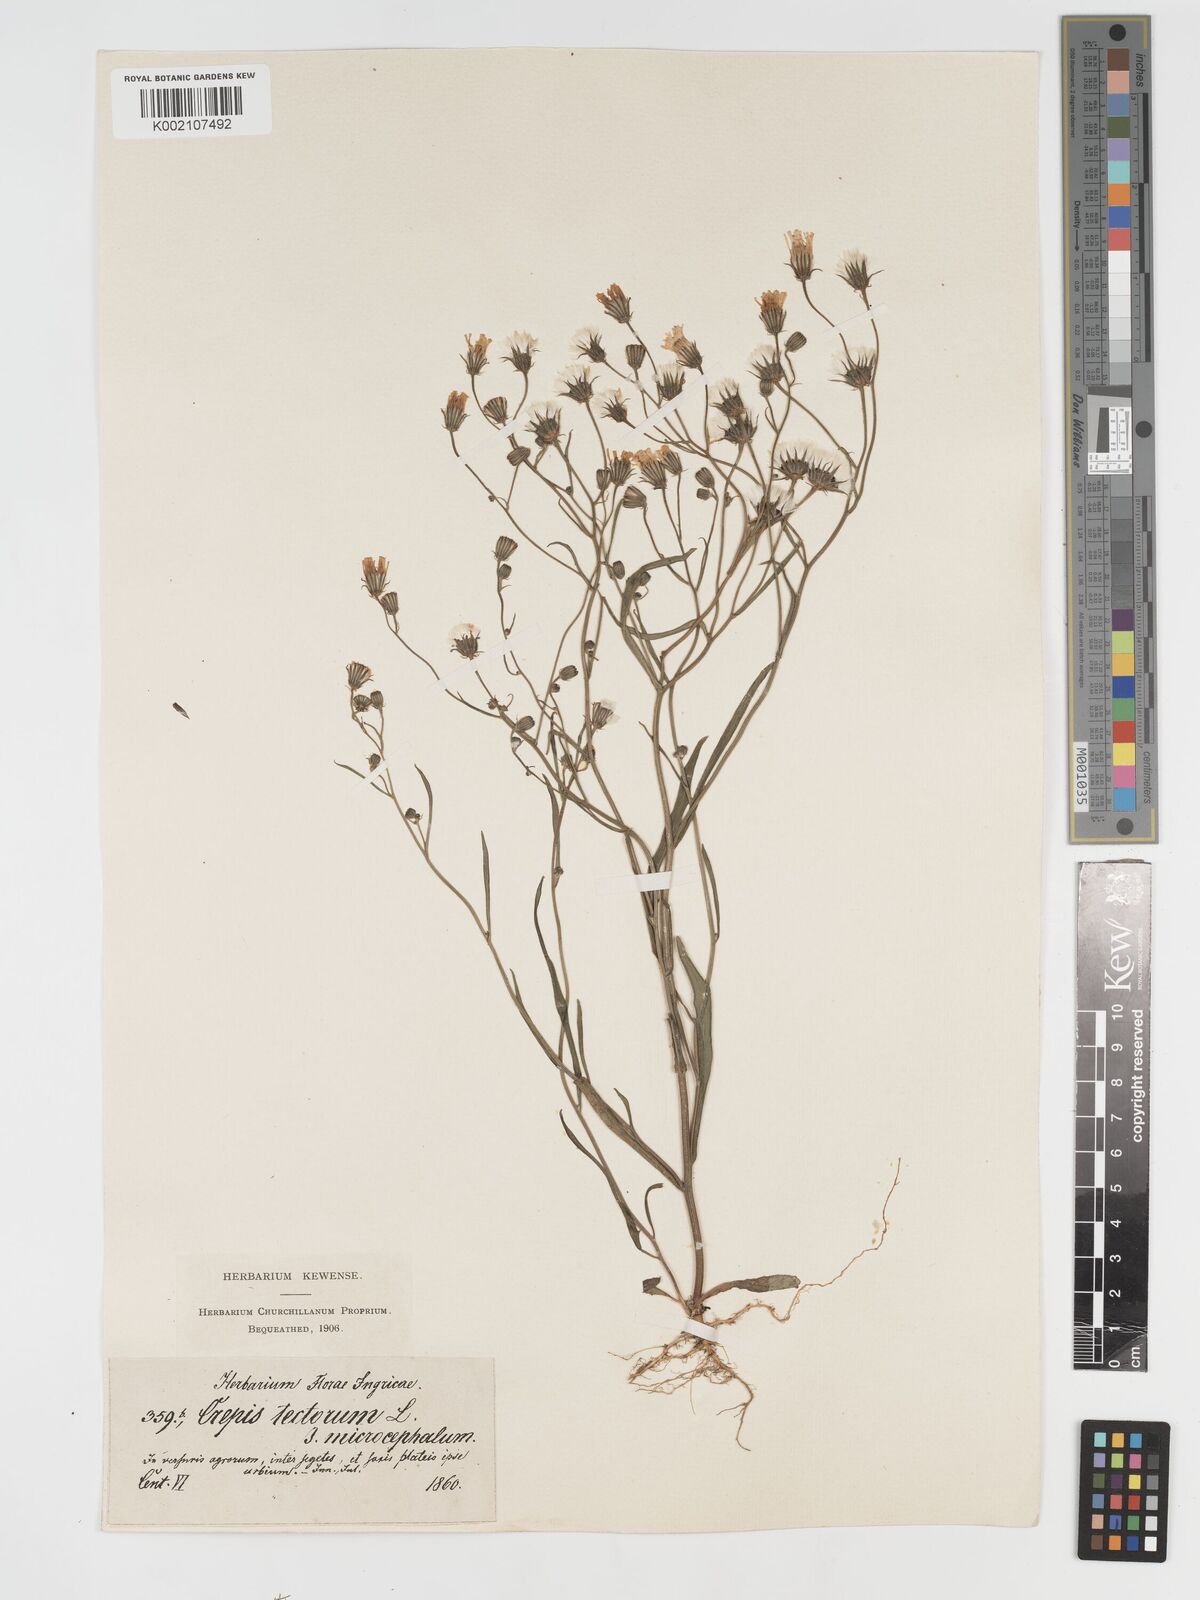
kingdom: Plantae
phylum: Tracheophyta
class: Magnoliopsida
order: Asterales
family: Asteraceae
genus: Crepis
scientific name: Crepis tectorum
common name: Narrow-leaved hawk's-beard
